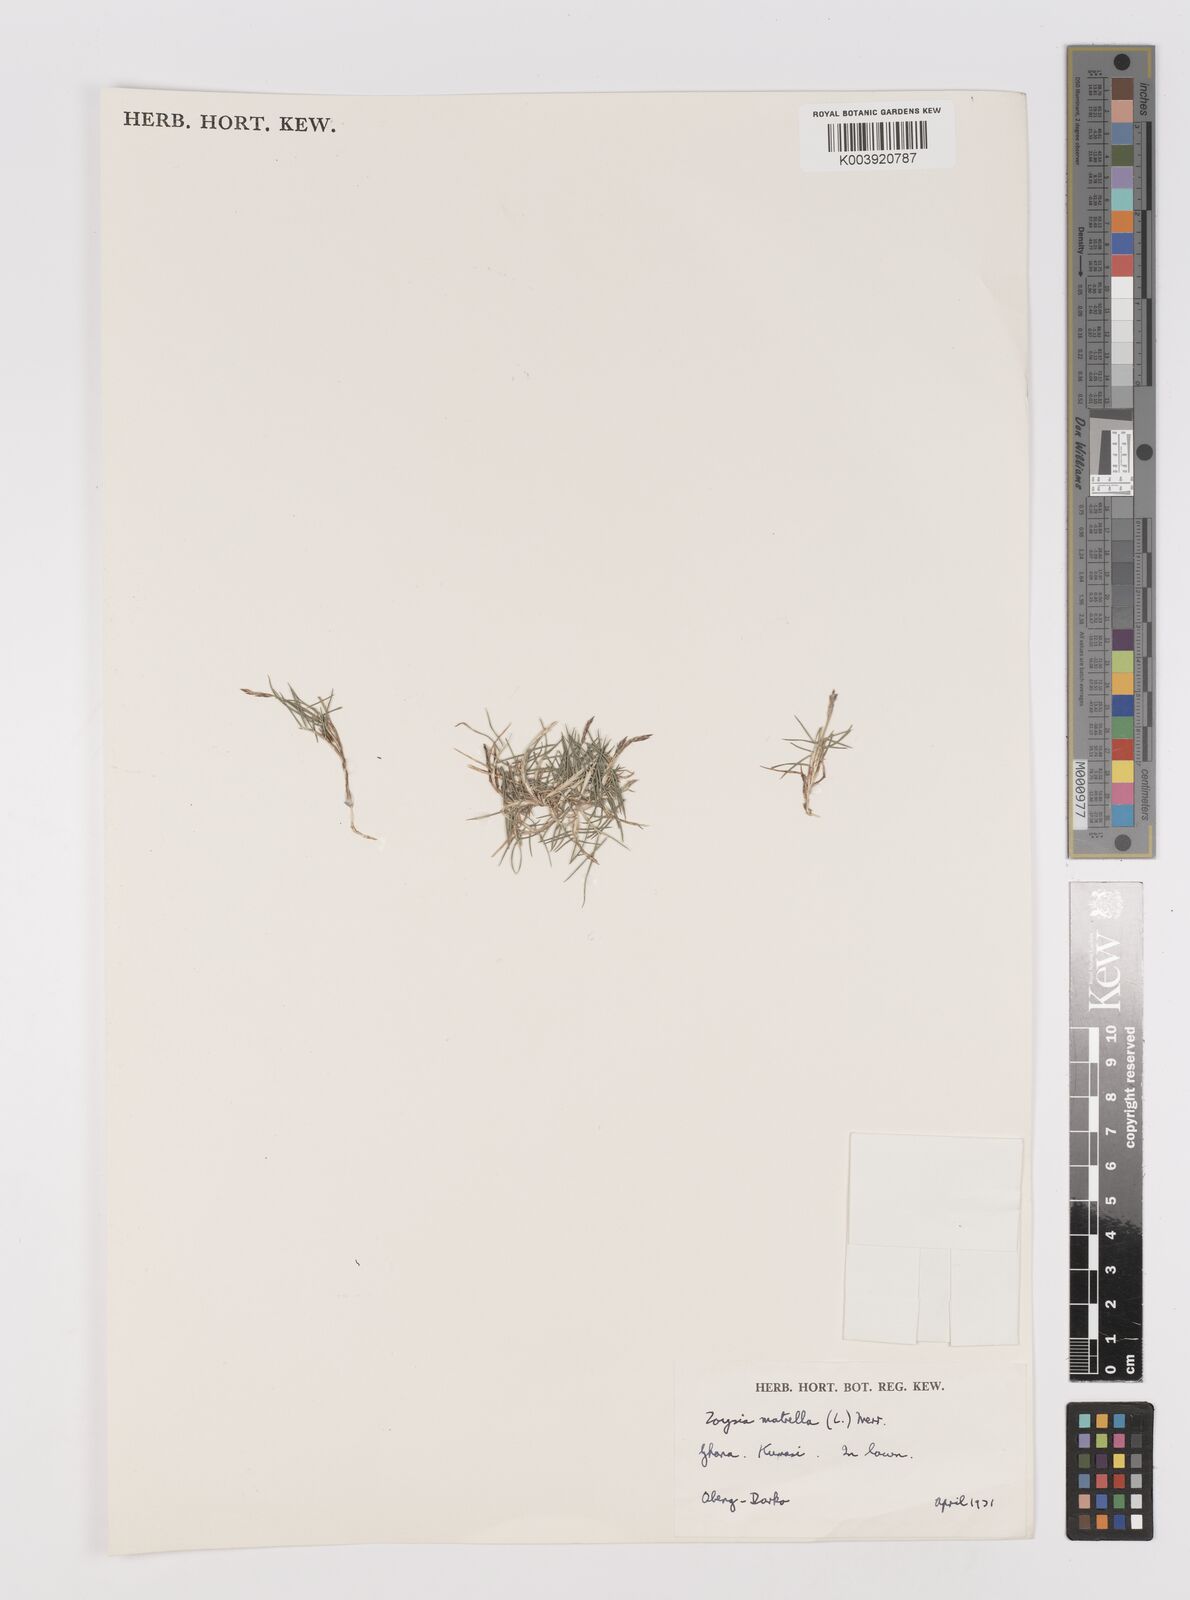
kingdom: Plantae
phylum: Tracheophyta
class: Liliopsida
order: Poales
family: Poaceae
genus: Zoysia
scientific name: Zoysia matrella
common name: Manila grass
